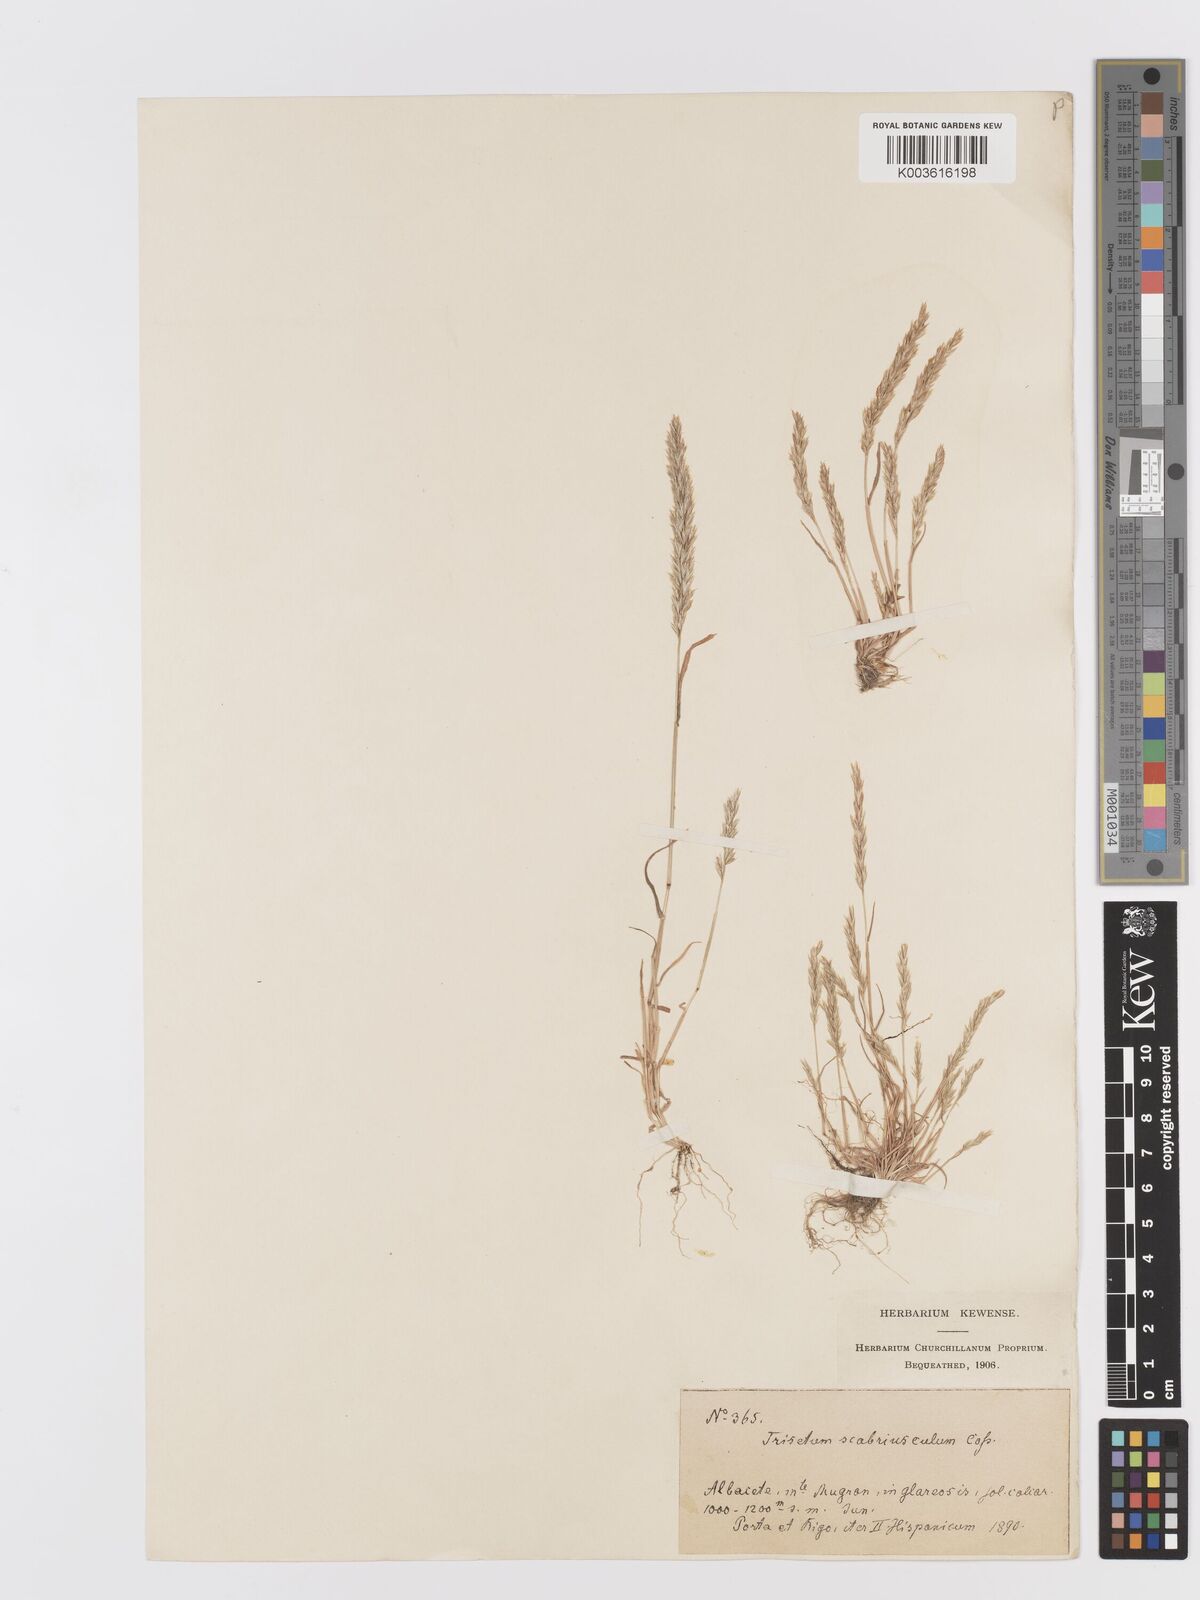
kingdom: Plantae
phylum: Tracheophyta
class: Liliopsida
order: Poales
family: Poaceae
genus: Trisetaria
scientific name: Trisetaria scabriuscula
